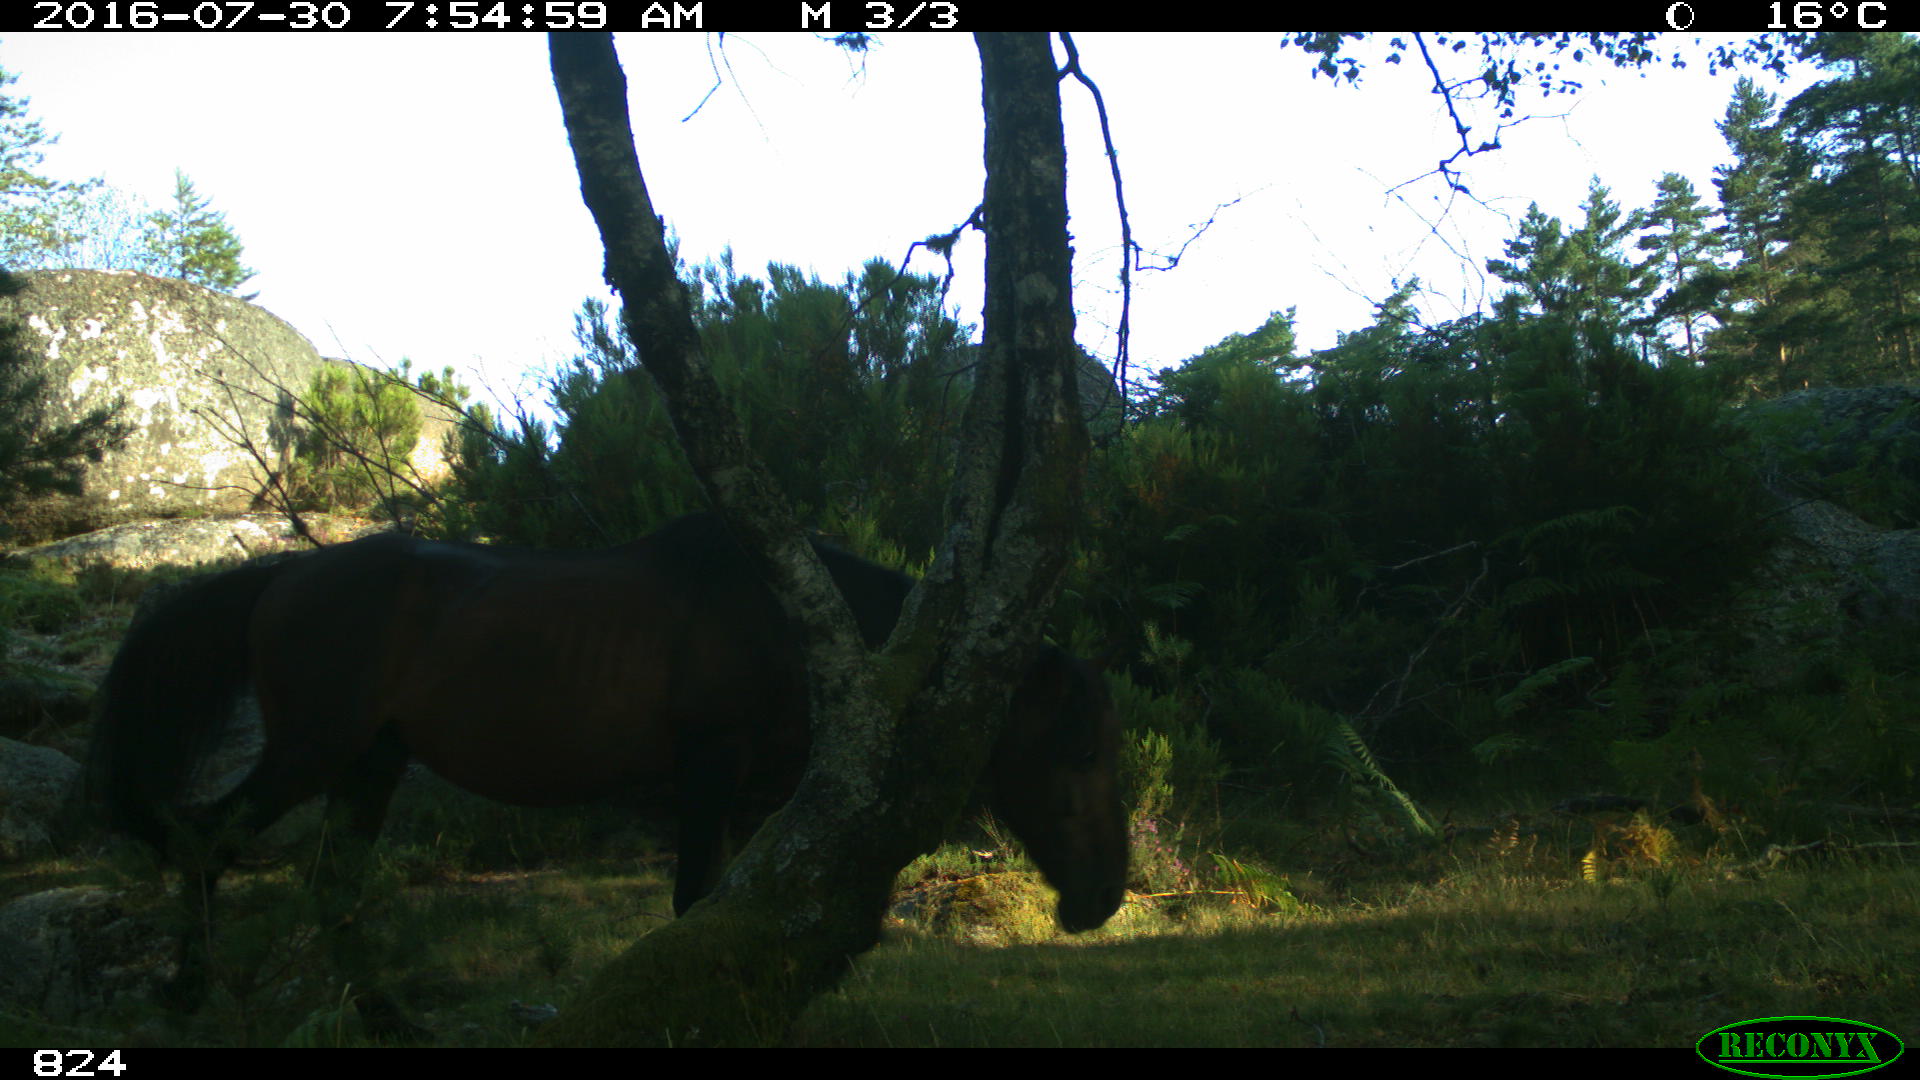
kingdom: Animalia
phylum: Chordata
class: Mammalia
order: Perissodactyla
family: Equidae
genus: Equus
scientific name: Equus caballus
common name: Horse
